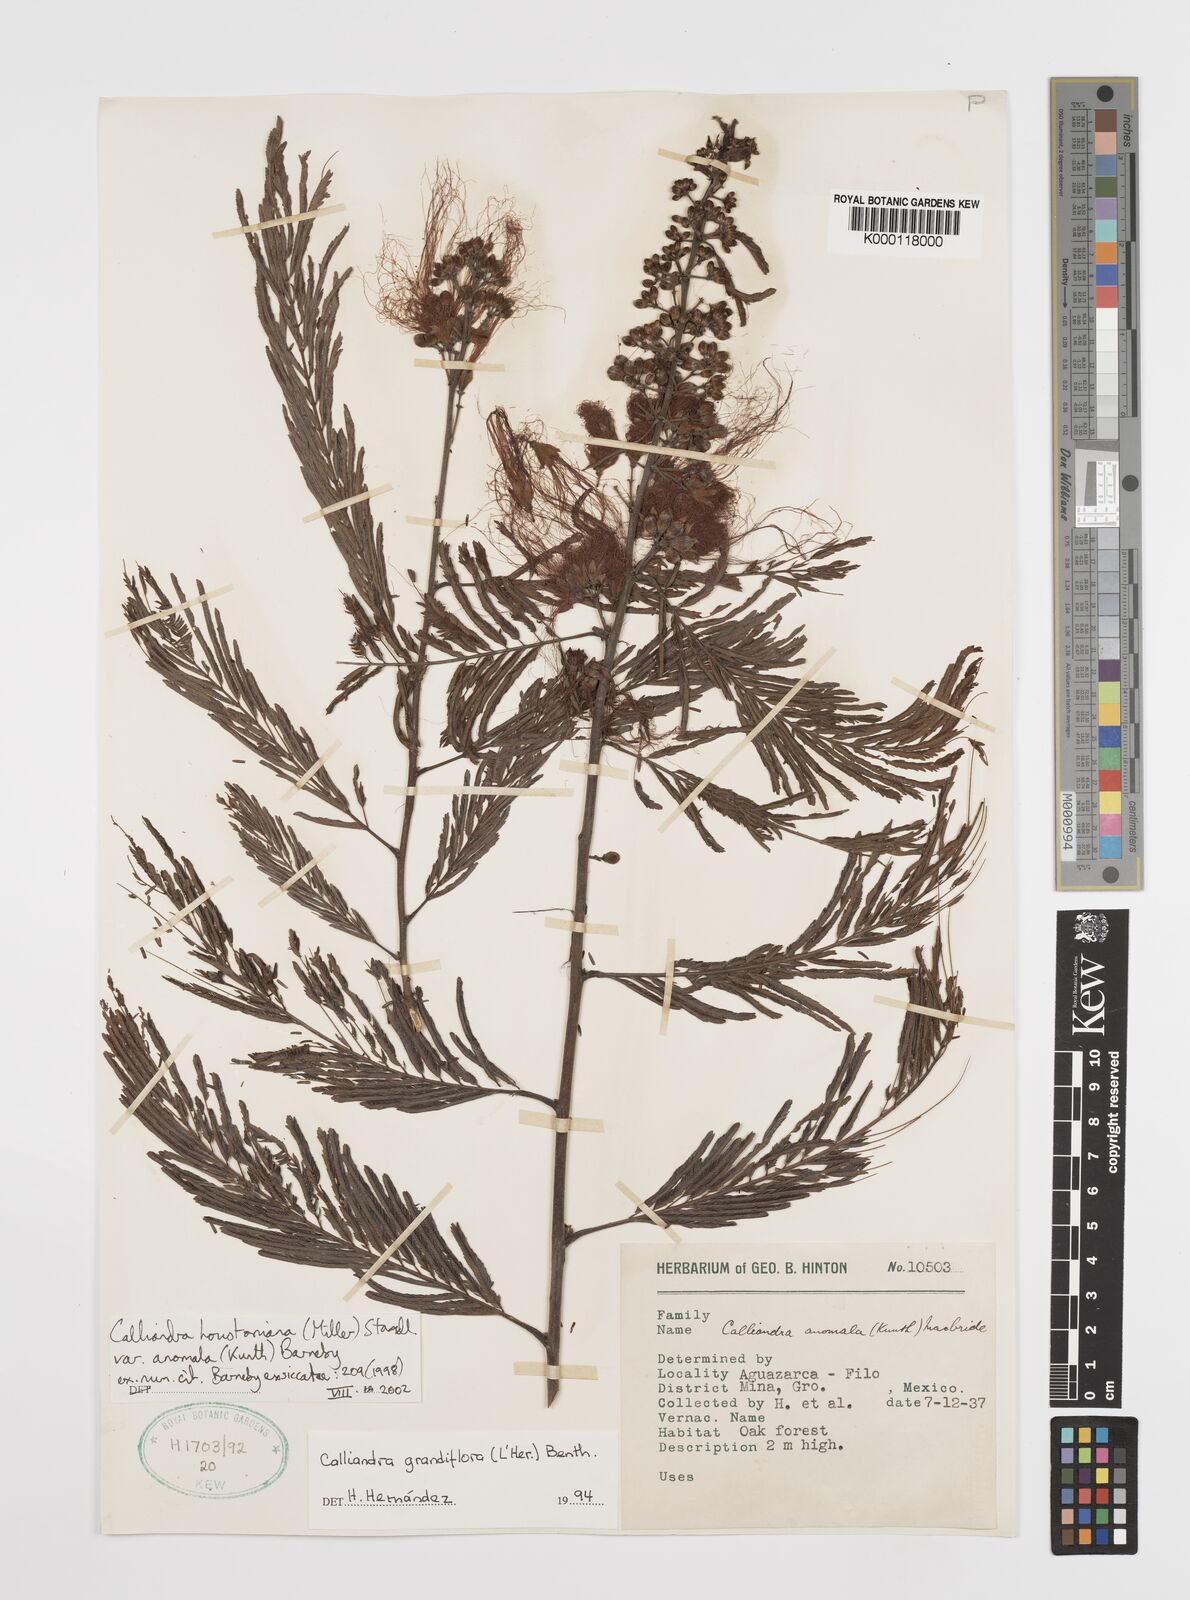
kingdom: Plantae
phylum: Tracheophyta
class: Magnoliopsida
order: Fabales
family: Fabaceae
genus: Calliandra
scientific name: Calliandra houstoniana
